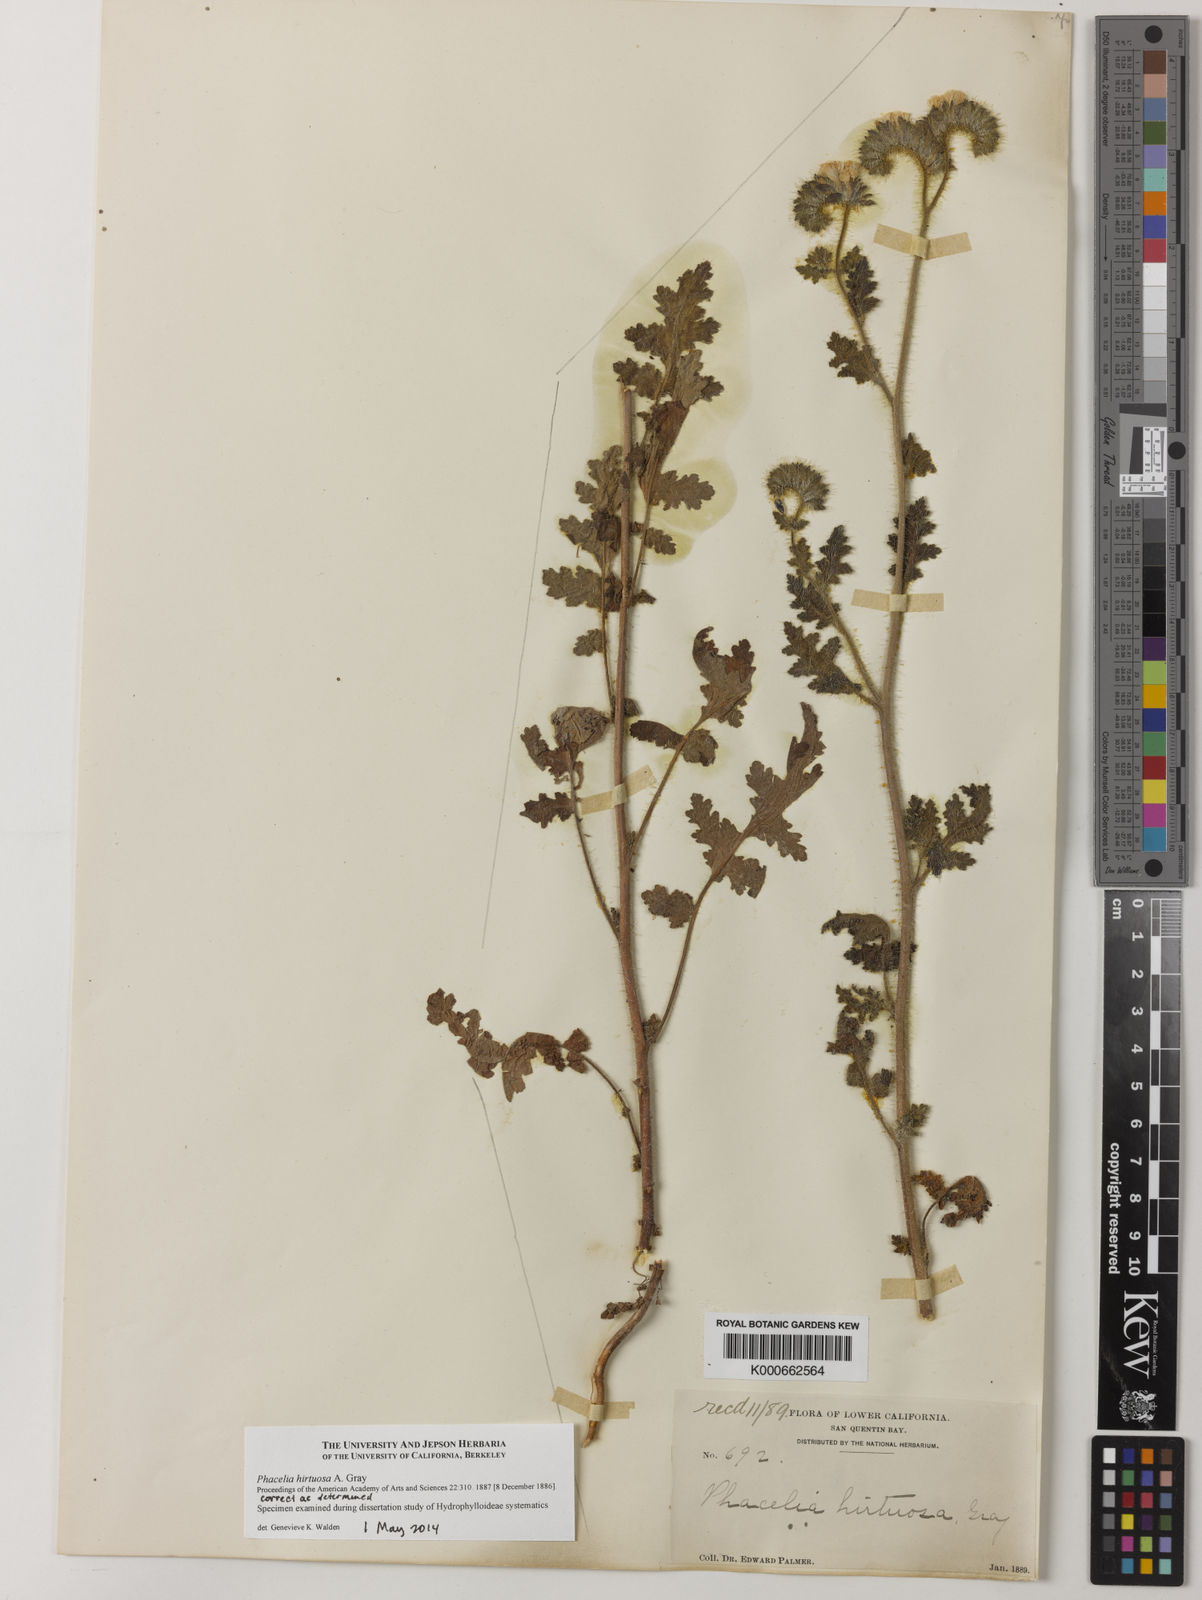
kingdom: Plantae
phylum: Tracheophyta
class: Magnoliopsida
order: Boraginales
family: Hydrophyllaceae
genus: Phacelia
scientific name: Phacelia hirtuosa
